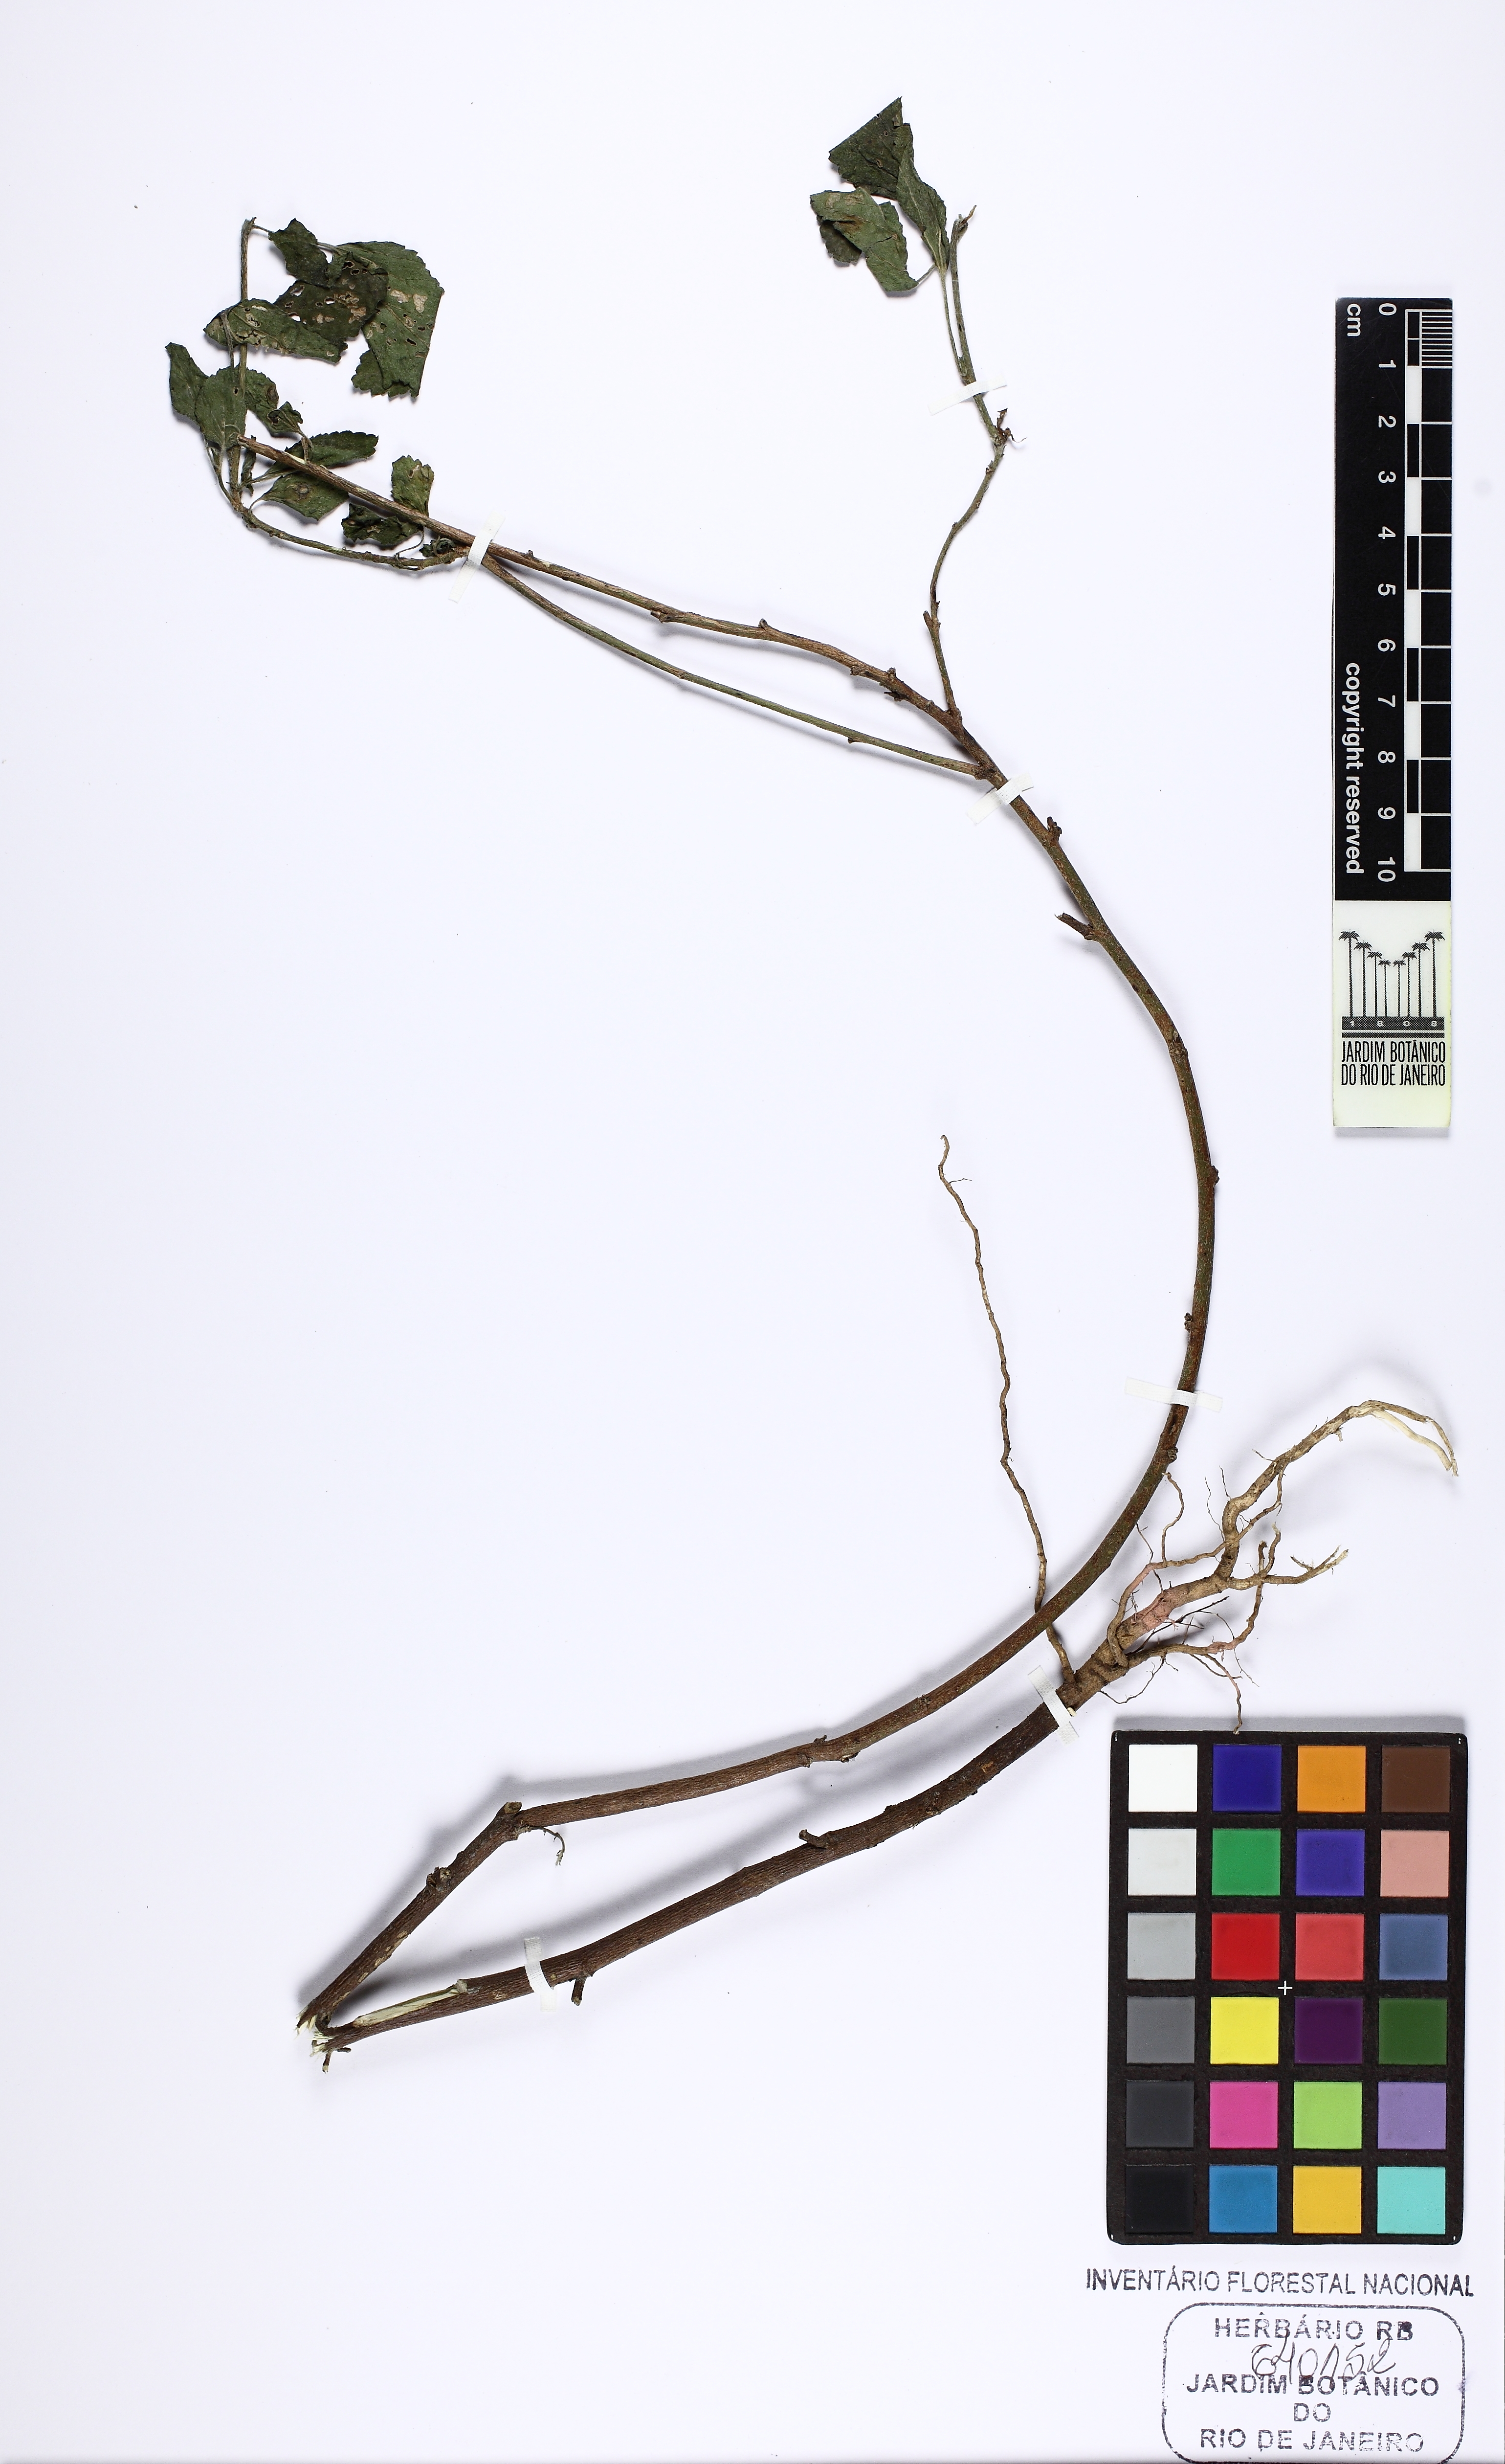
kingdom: Plantae
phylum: Tracheophyta
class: Magnoliopsida
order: Malvales
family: Malvaceae
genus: Malvastrum
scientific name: Malvastrum coromandelianum
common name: Threelobe false mallow
